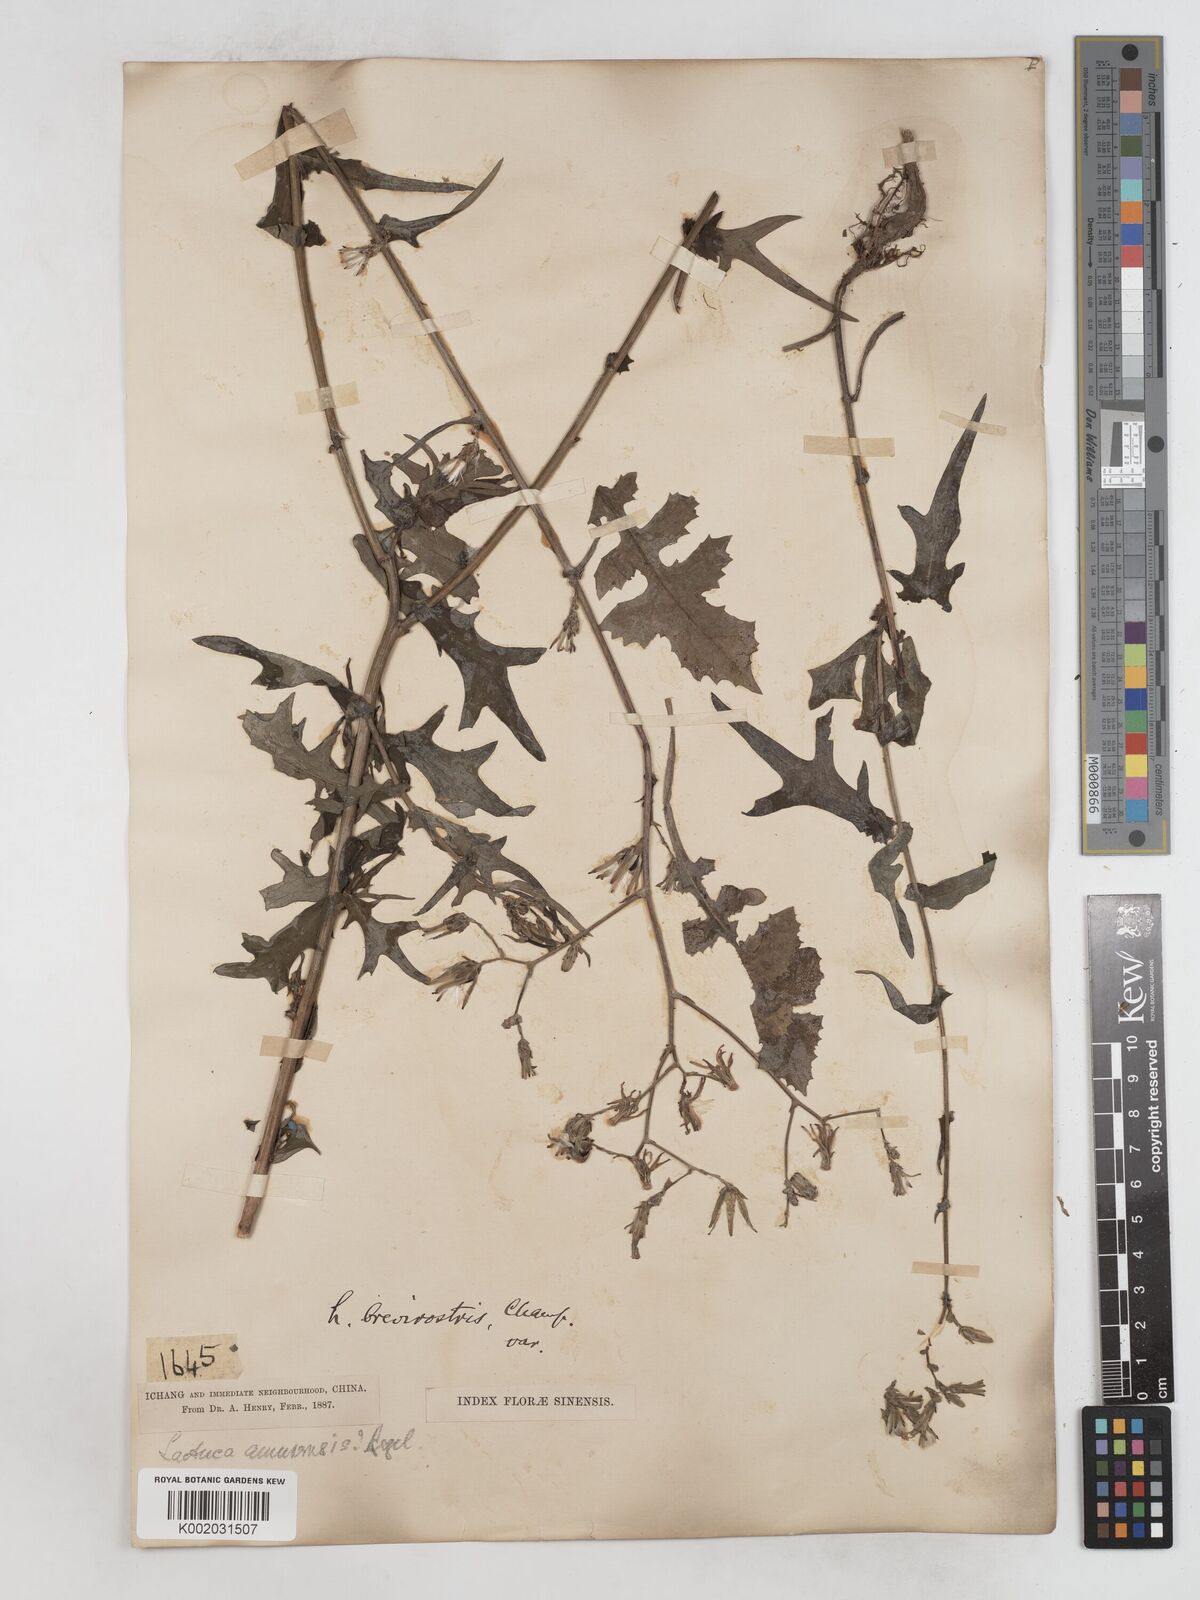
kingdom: Plantae
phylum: Tracheophyta
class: Magnoliopsida
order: Asterales
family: Asteraceae
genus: Lactuca
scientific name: Lactuca
